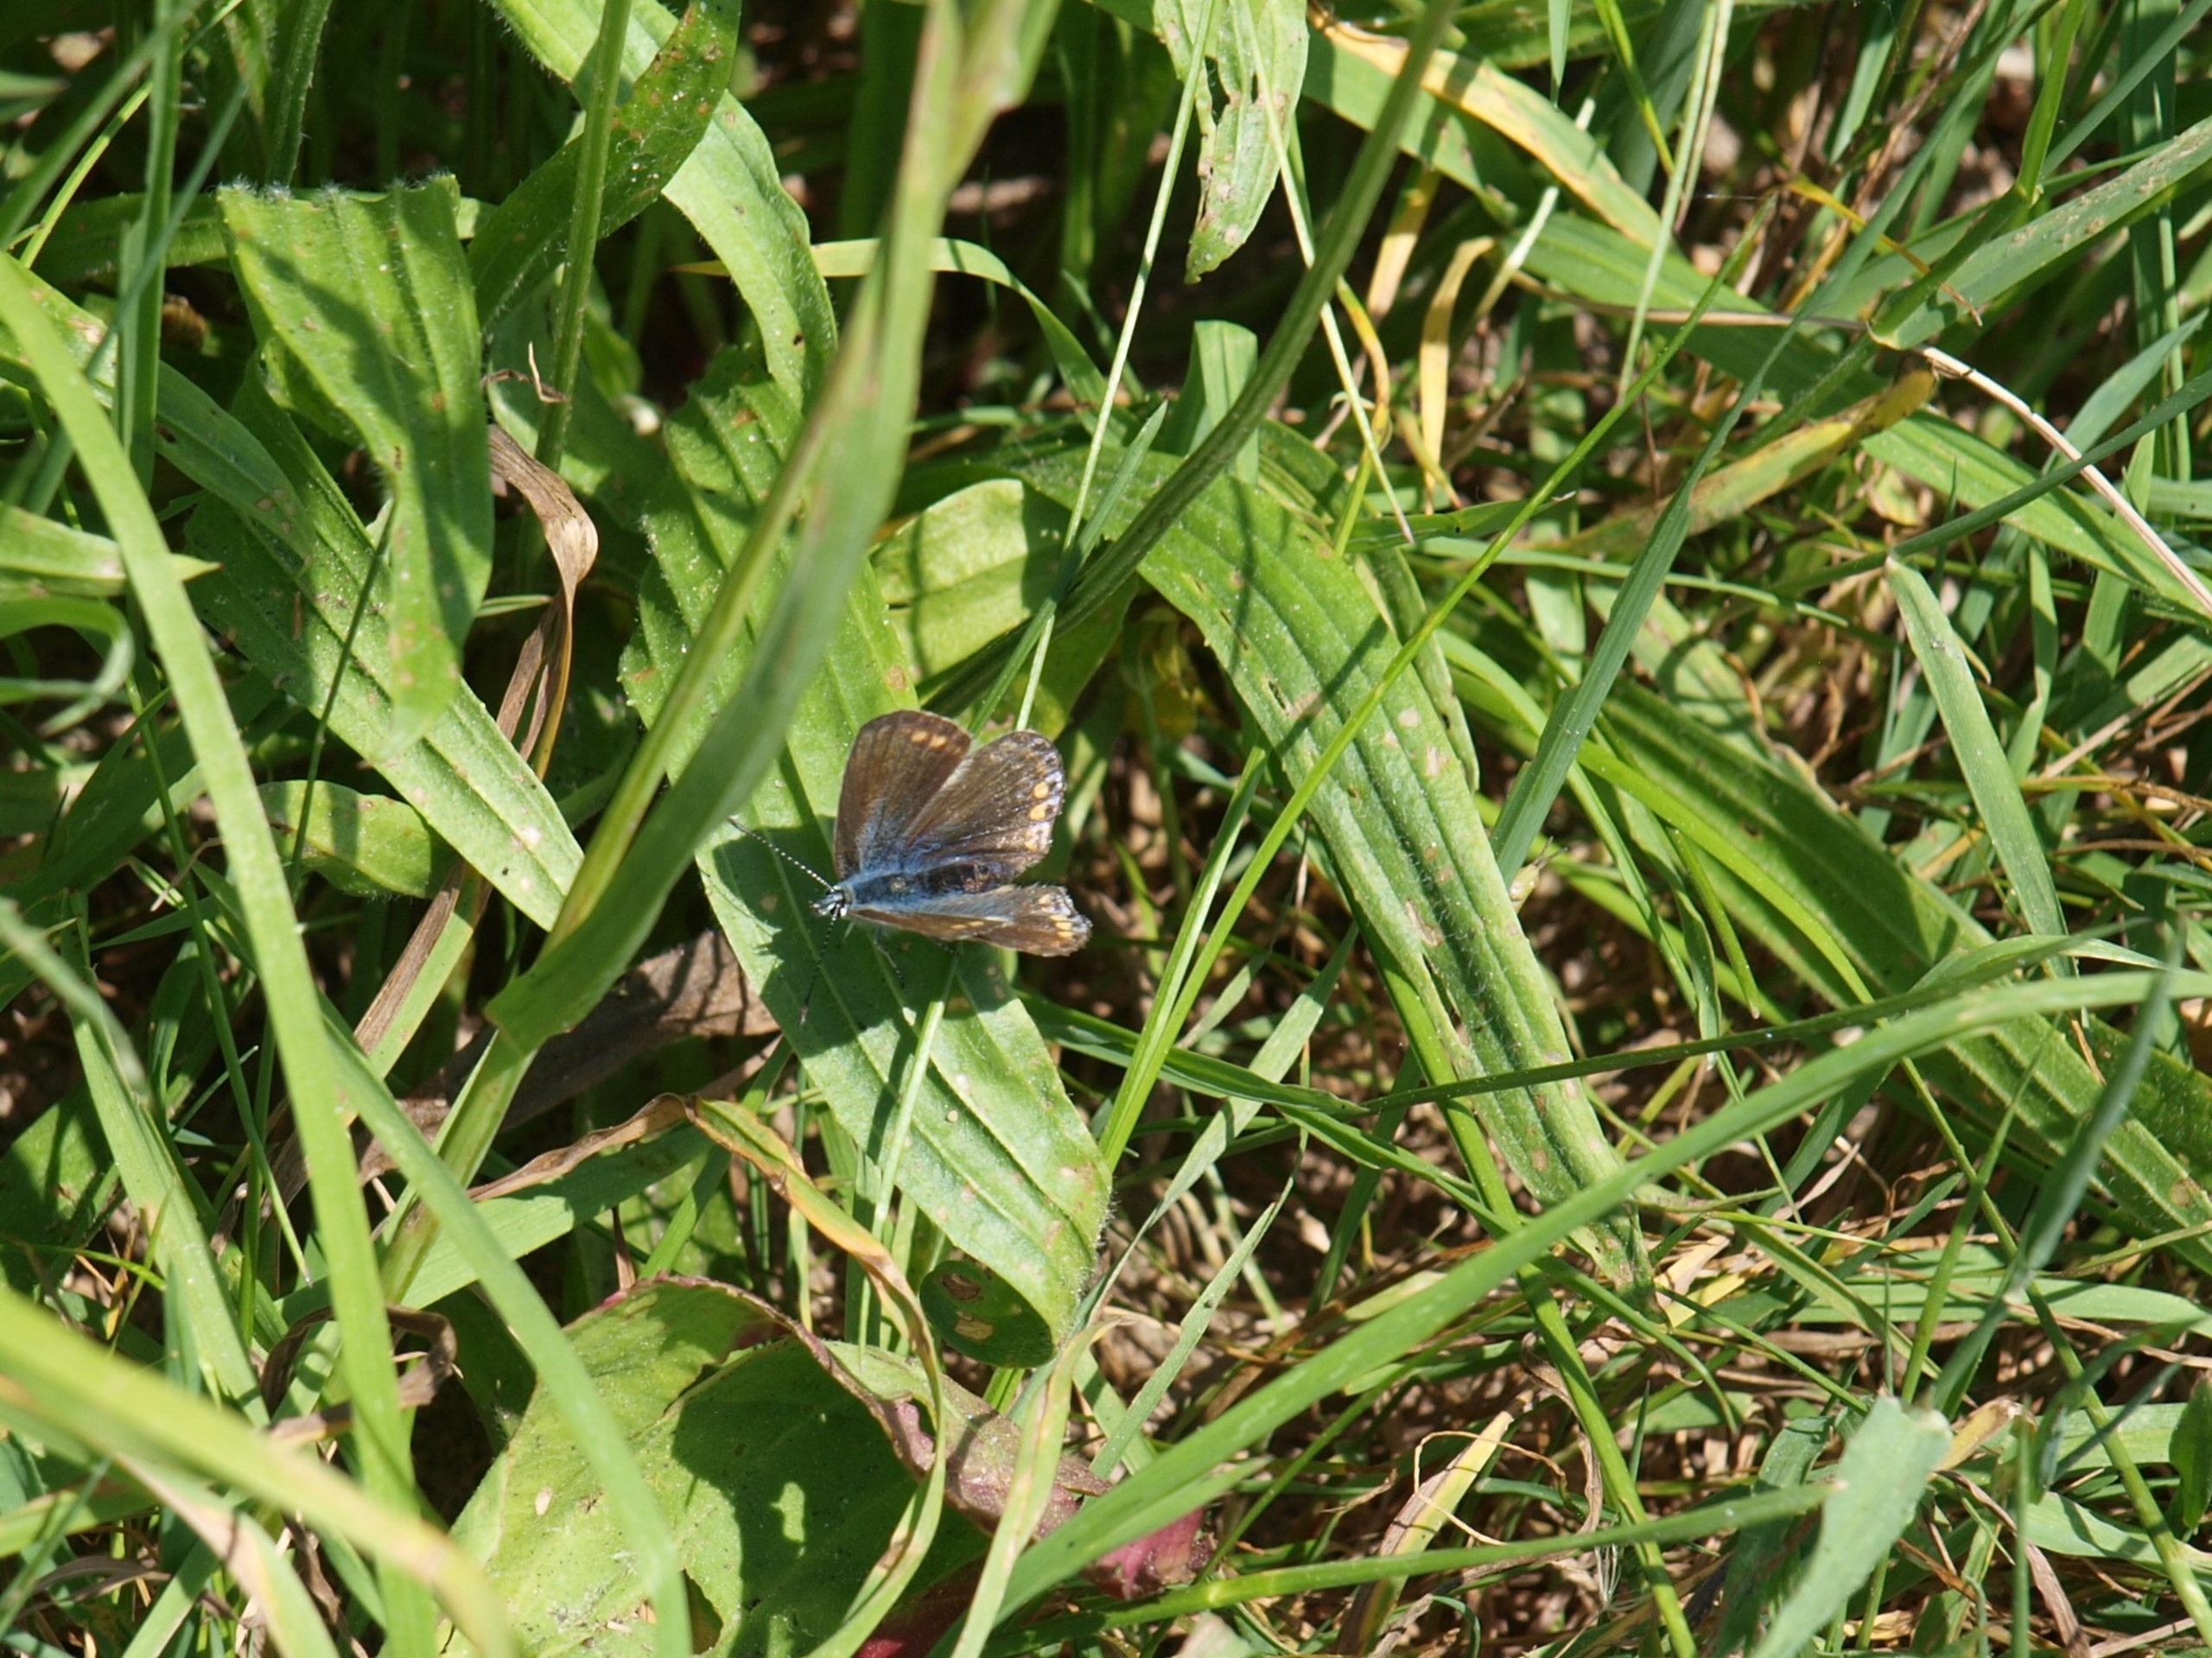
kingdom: Animalia
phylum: Arthropoda
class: Insecta
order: Lepidoptera
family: Lycaenidae
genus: Polyommatus
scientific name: Polyommatus icarus
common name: Almindelig blåfugl
